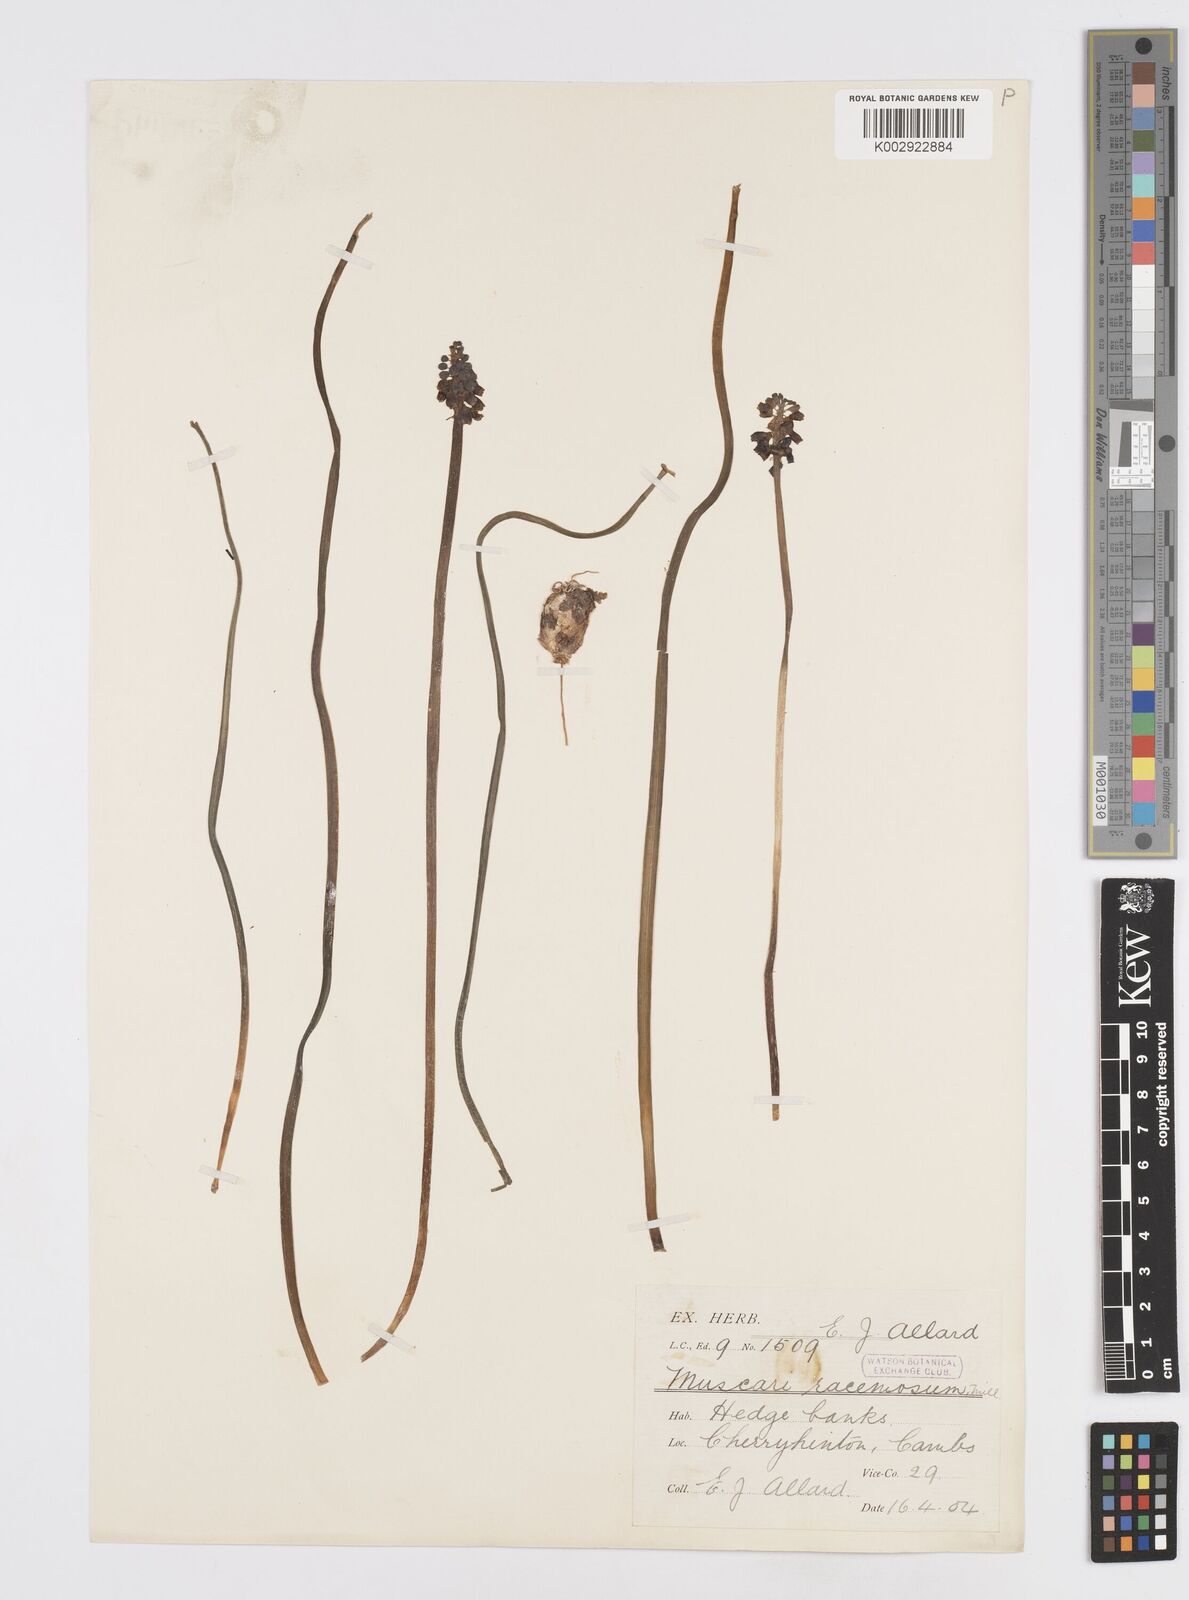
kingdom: Plantae
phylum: Tracheophyta
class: Liliopsida
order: Asparagales
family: Asparagaceae
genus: Muscarimia
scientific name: Muscarimia muscari
